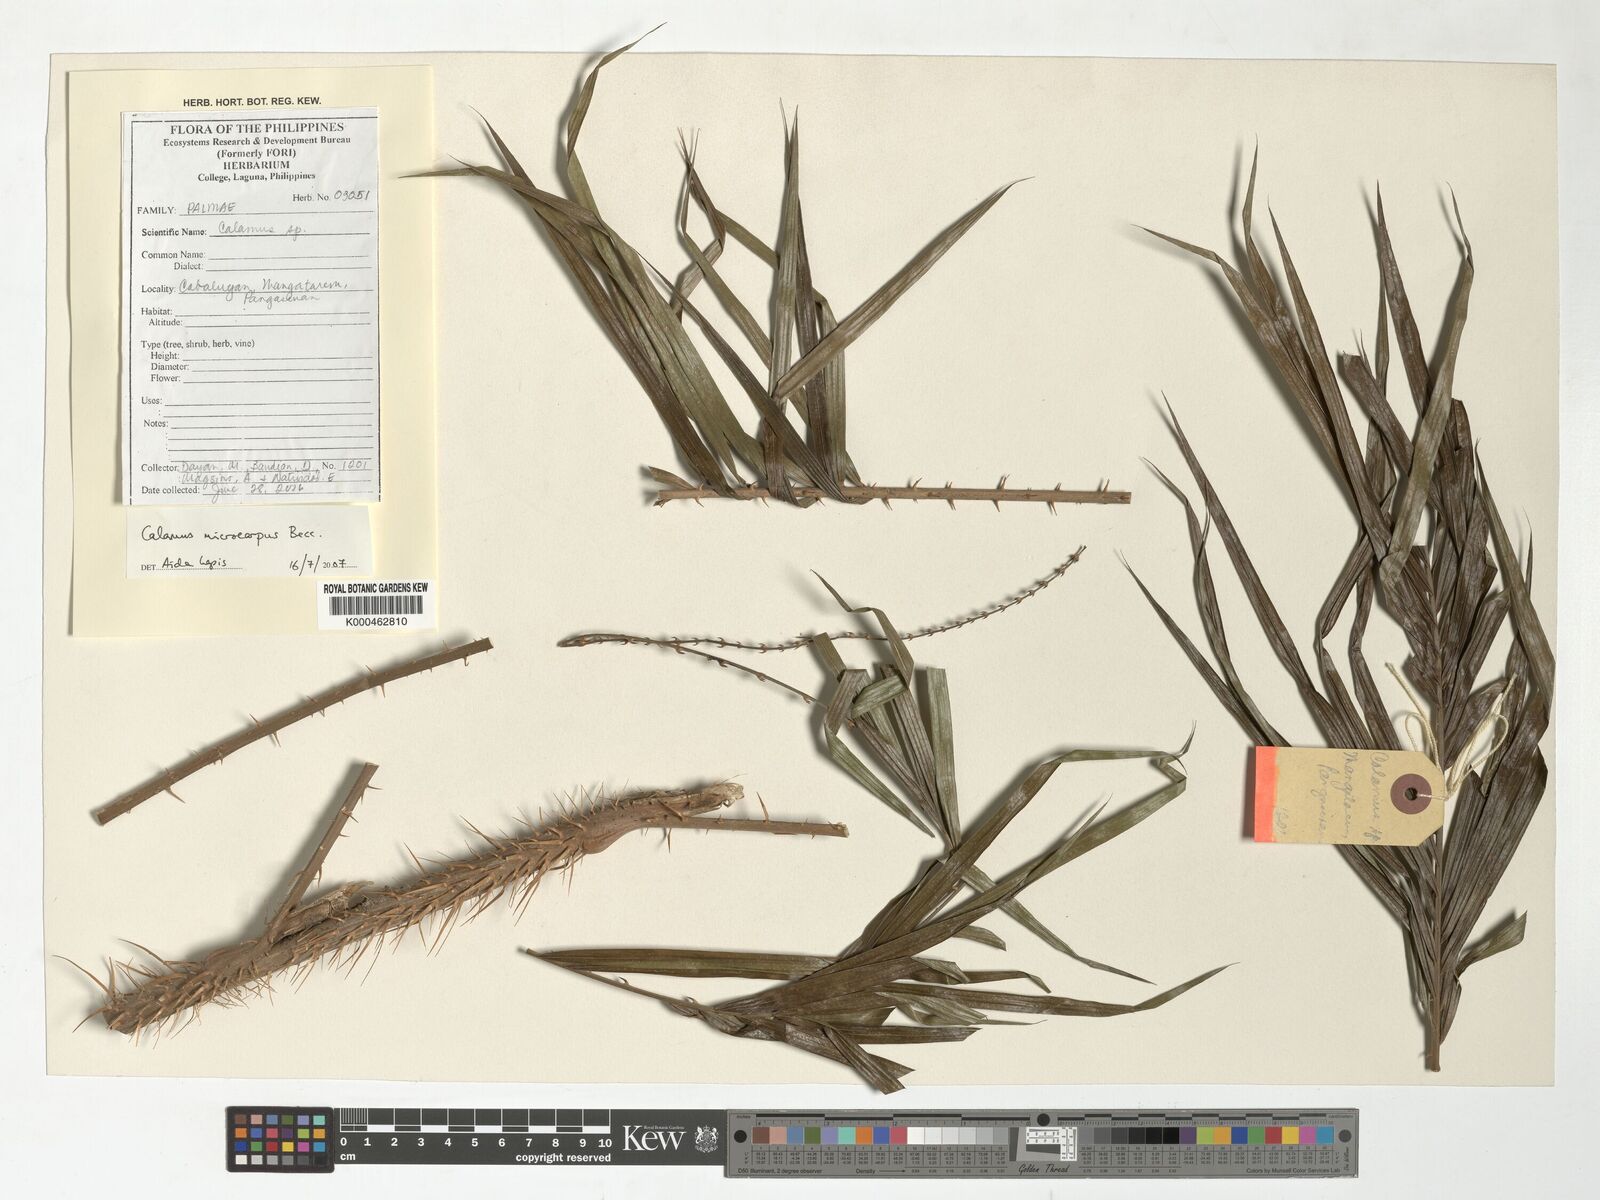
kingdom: Plantae
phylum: Tracheophyta
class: Liliopsida
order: Arecales
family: Arecaceae
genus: Calamus
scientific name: Calamus siphonospathus
